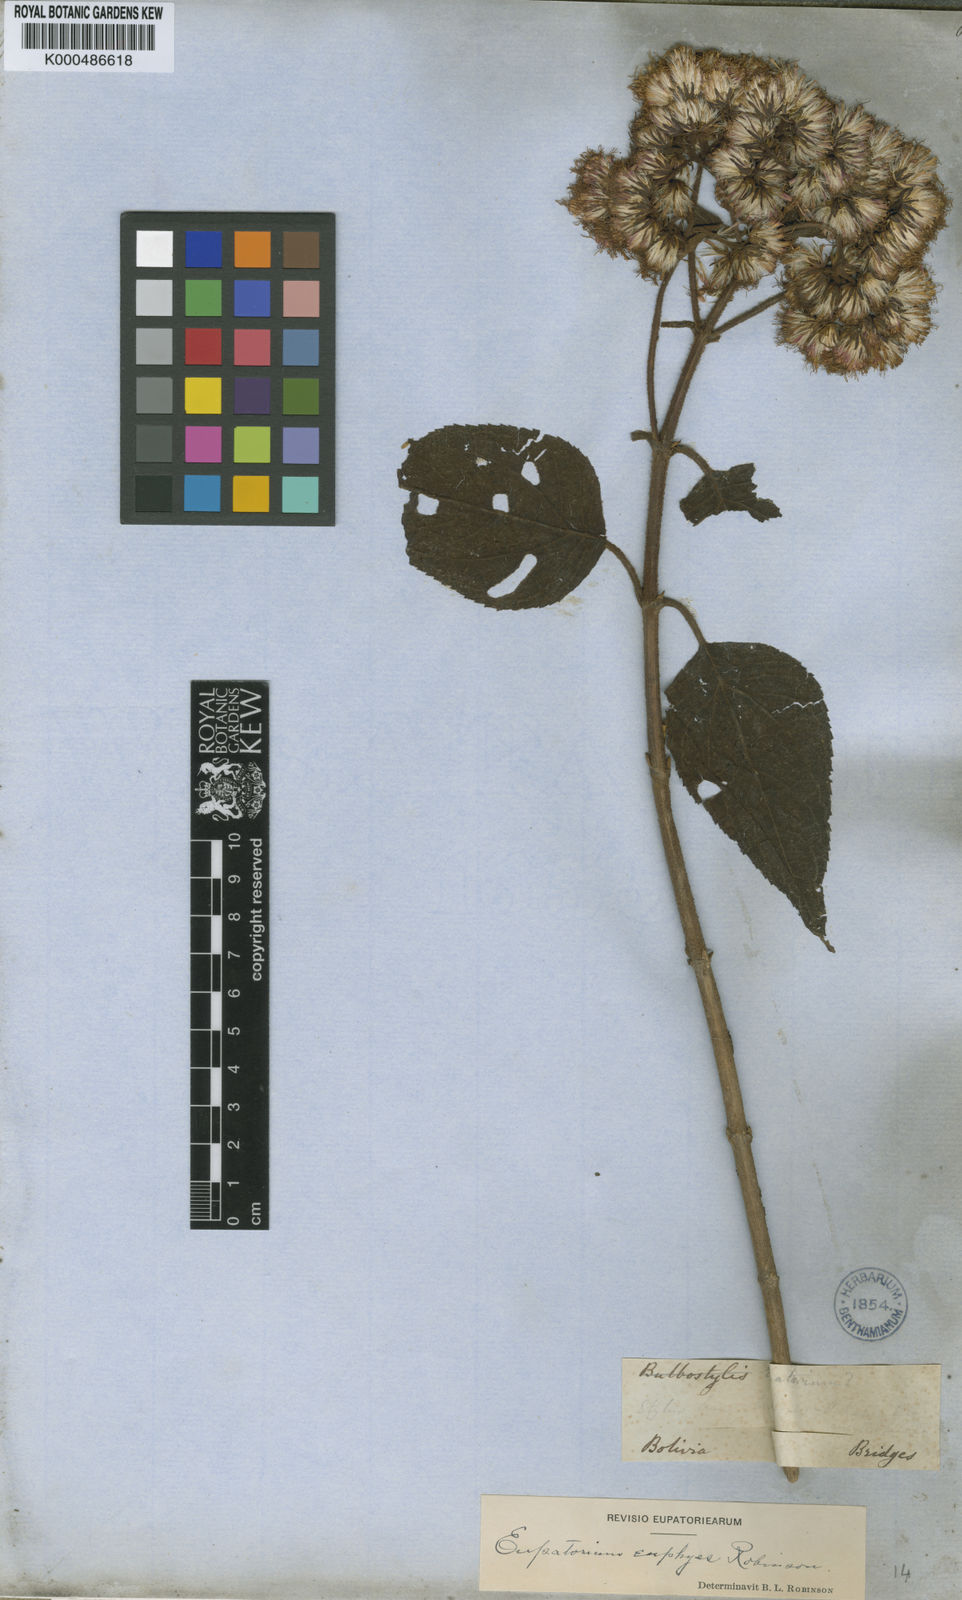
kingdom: Plantae
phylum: Tracheophyta
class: Magnoliopsida
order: Asterales
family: Asteraceae
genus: Ayapanopsis
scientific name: Ayapanopsis euphyes
